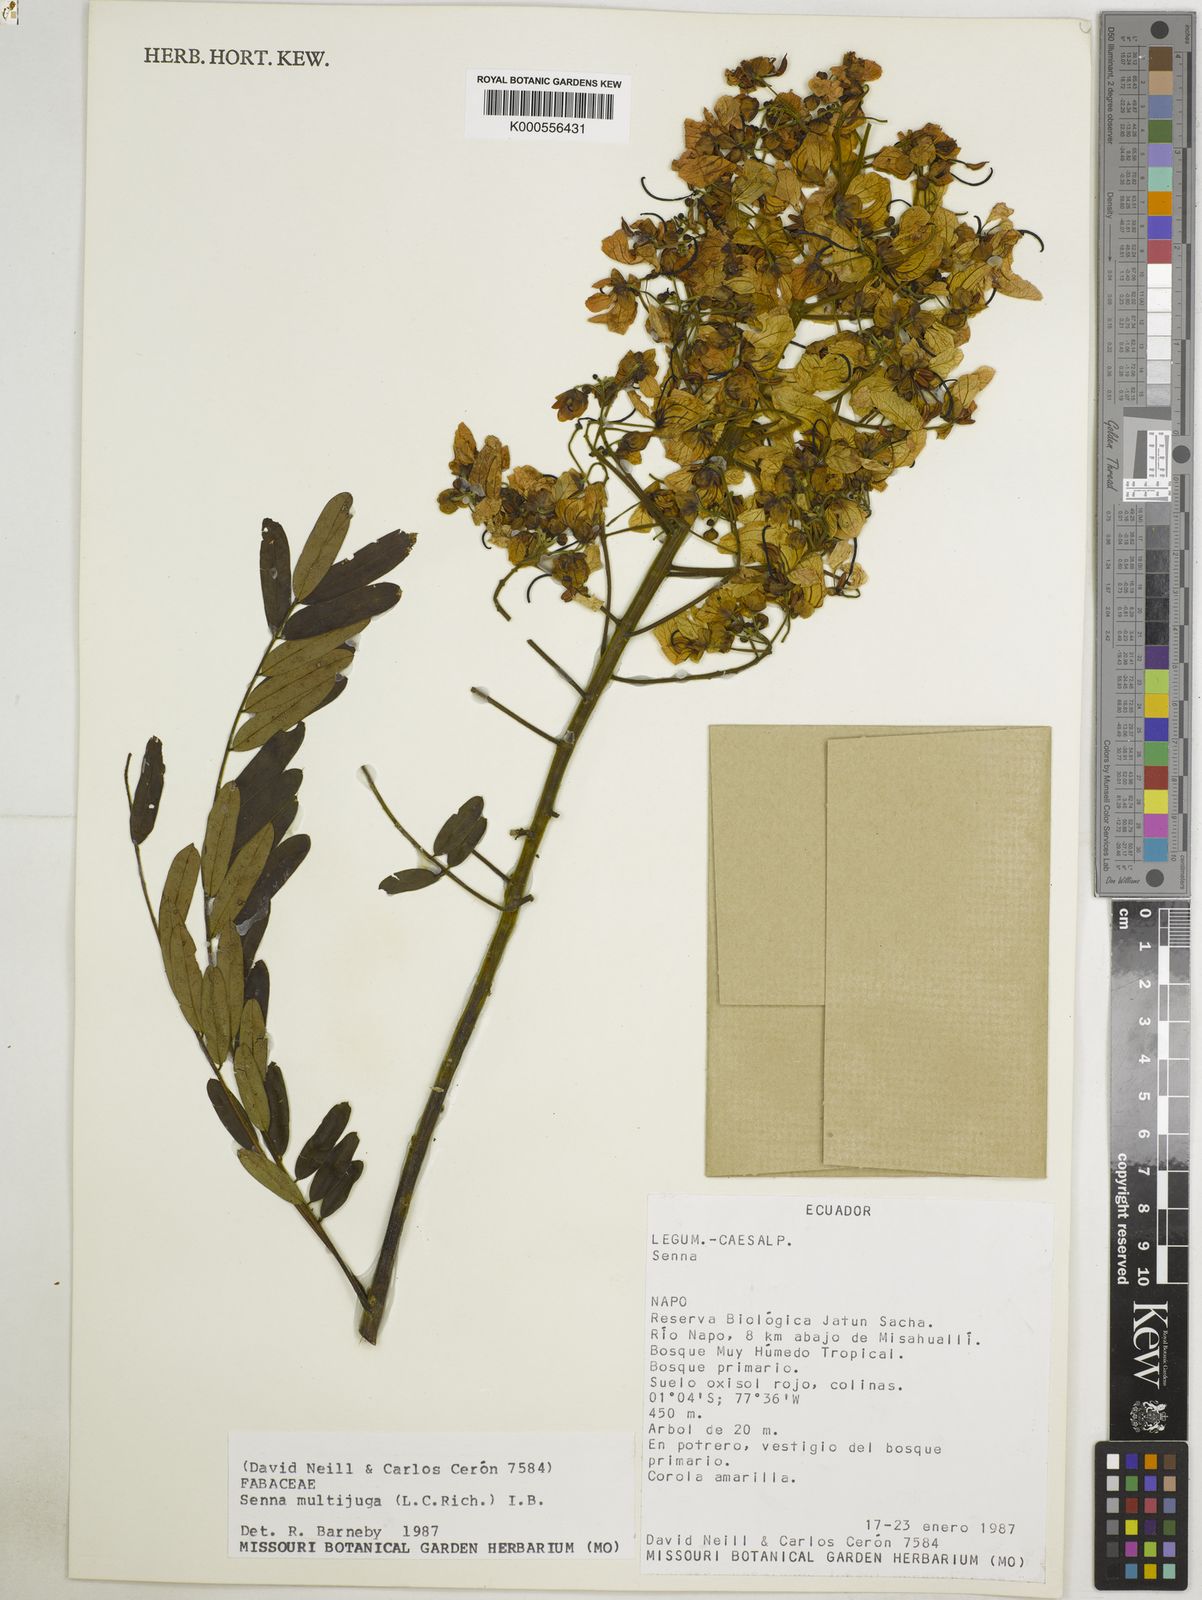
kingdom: Plantae
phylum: Tracheophyta
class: Magnoliopsida
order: Fabales
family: Fabaceae
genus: Senna
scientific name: Senna multijuga
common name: False sicklepod
